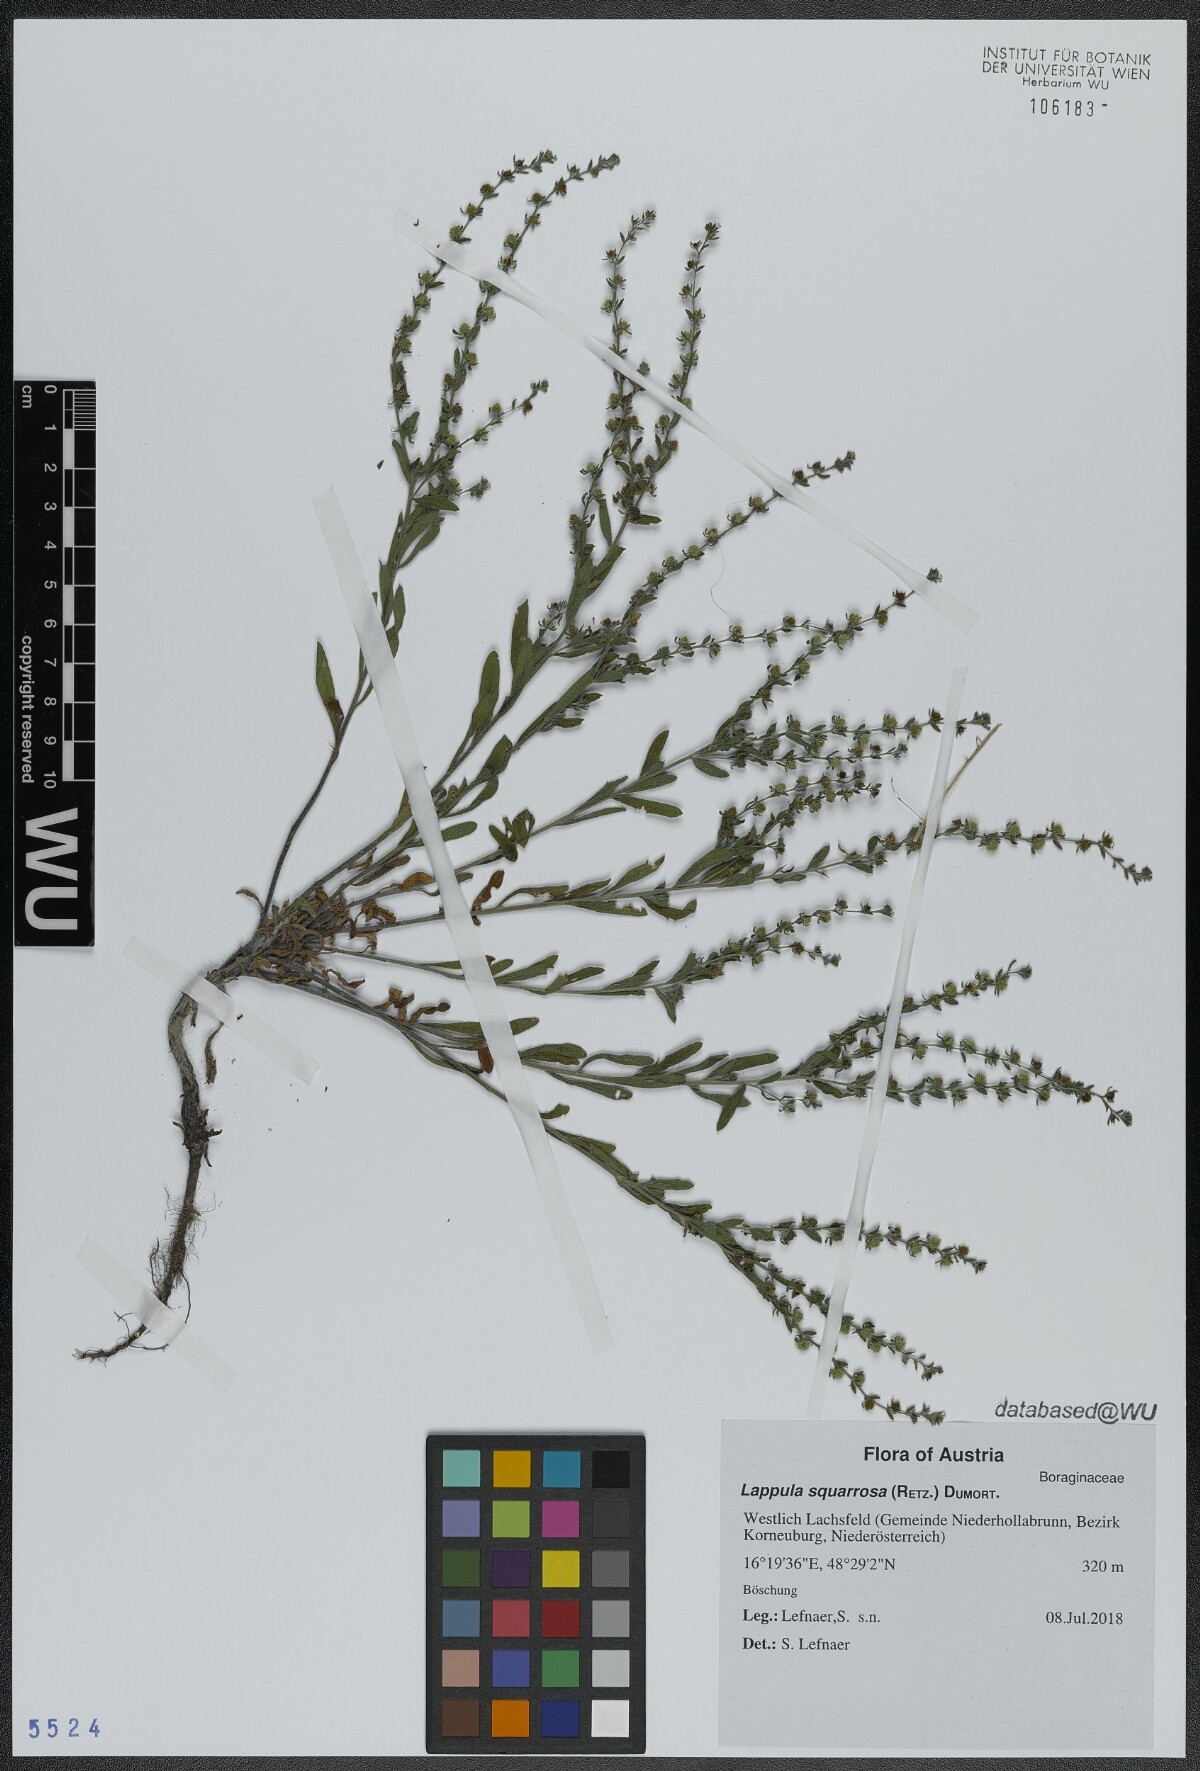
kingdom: Plantae
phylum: Tracheophyta
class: Magnoliopsida
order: Boraginales
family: Boraginaceae
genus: Lappula
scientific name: Lappula squarrosa
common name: European stickseed
